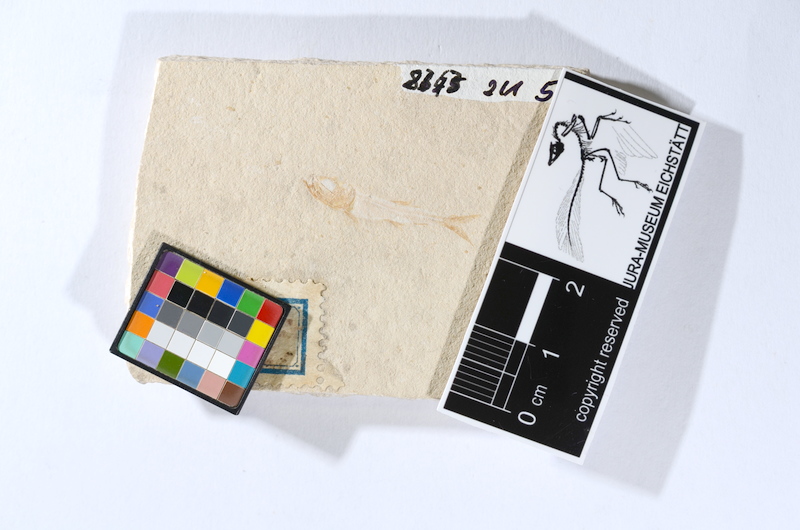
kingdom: Animalia
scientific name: Animalia
